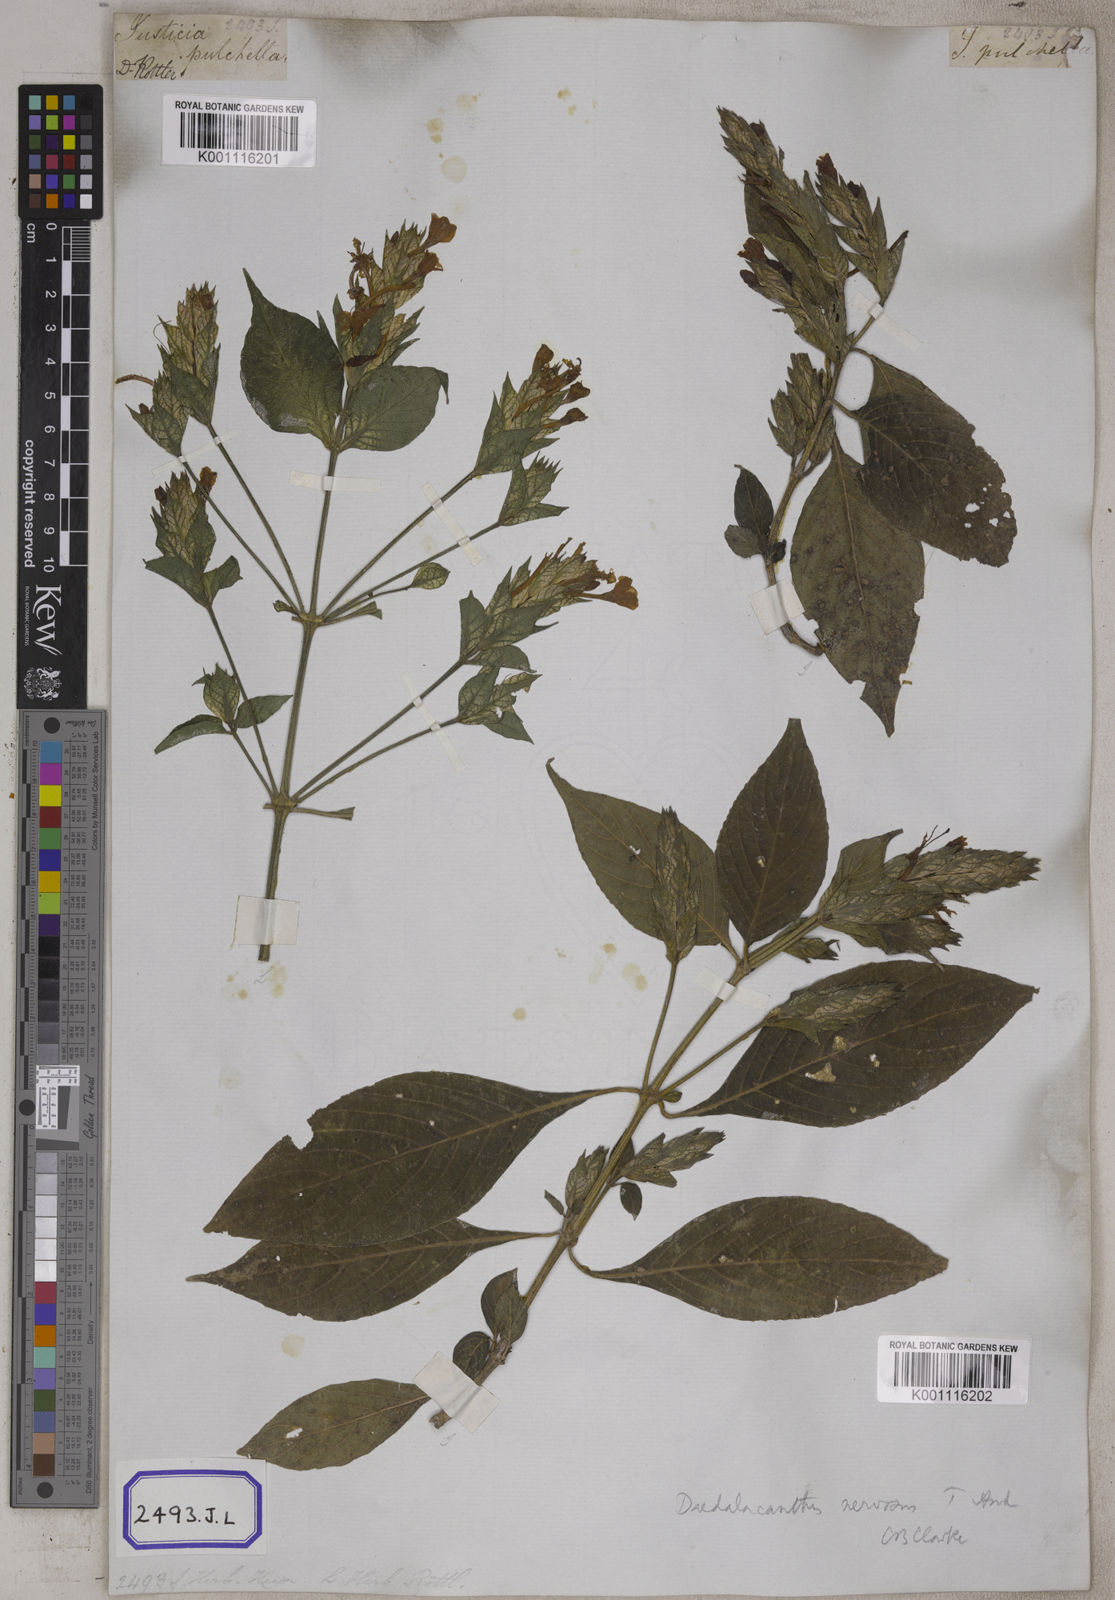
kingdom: Plantae
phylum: Tracheophyta
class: Magnoliopsida
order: Lamiales
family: Acanthaceae
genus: Eranthemum
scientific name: Eranthemum
